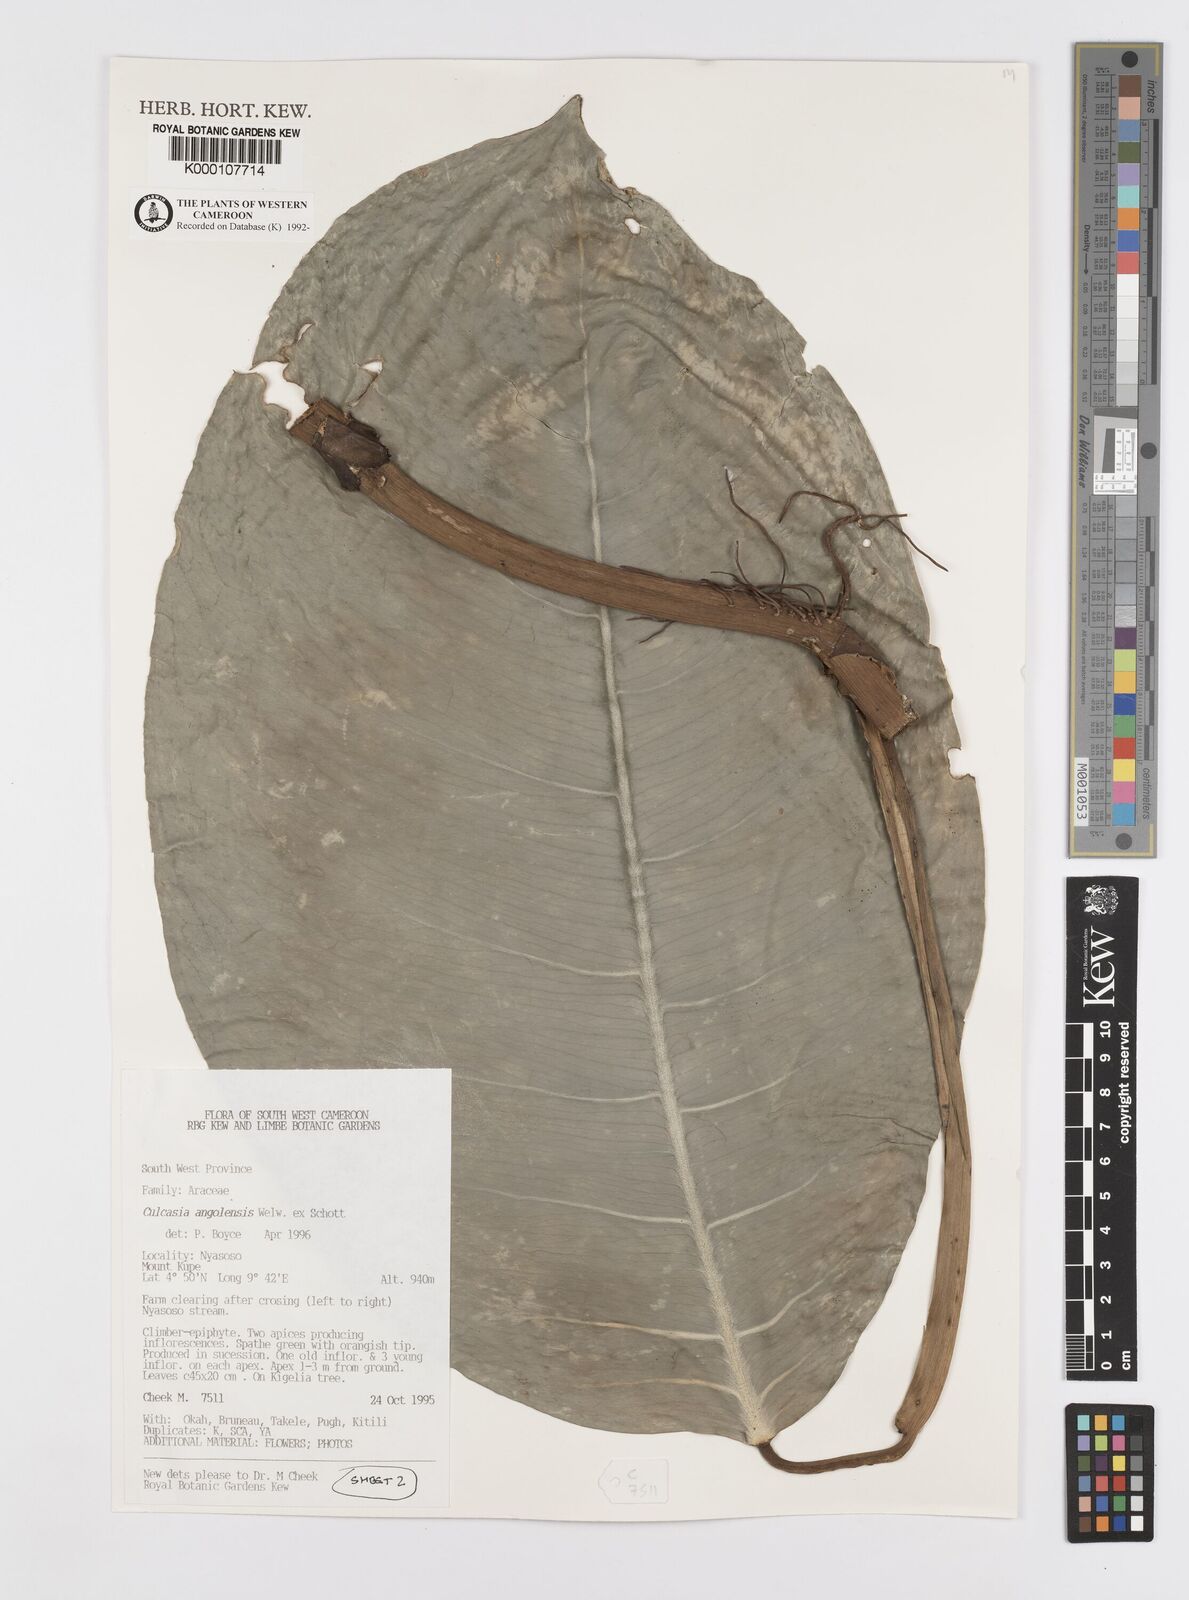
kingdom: Plantae
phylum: Tracheophyta
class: Liliopsida
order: Alismatales
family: Araceae
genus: Culcasia
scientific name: Culcasia angolensis
